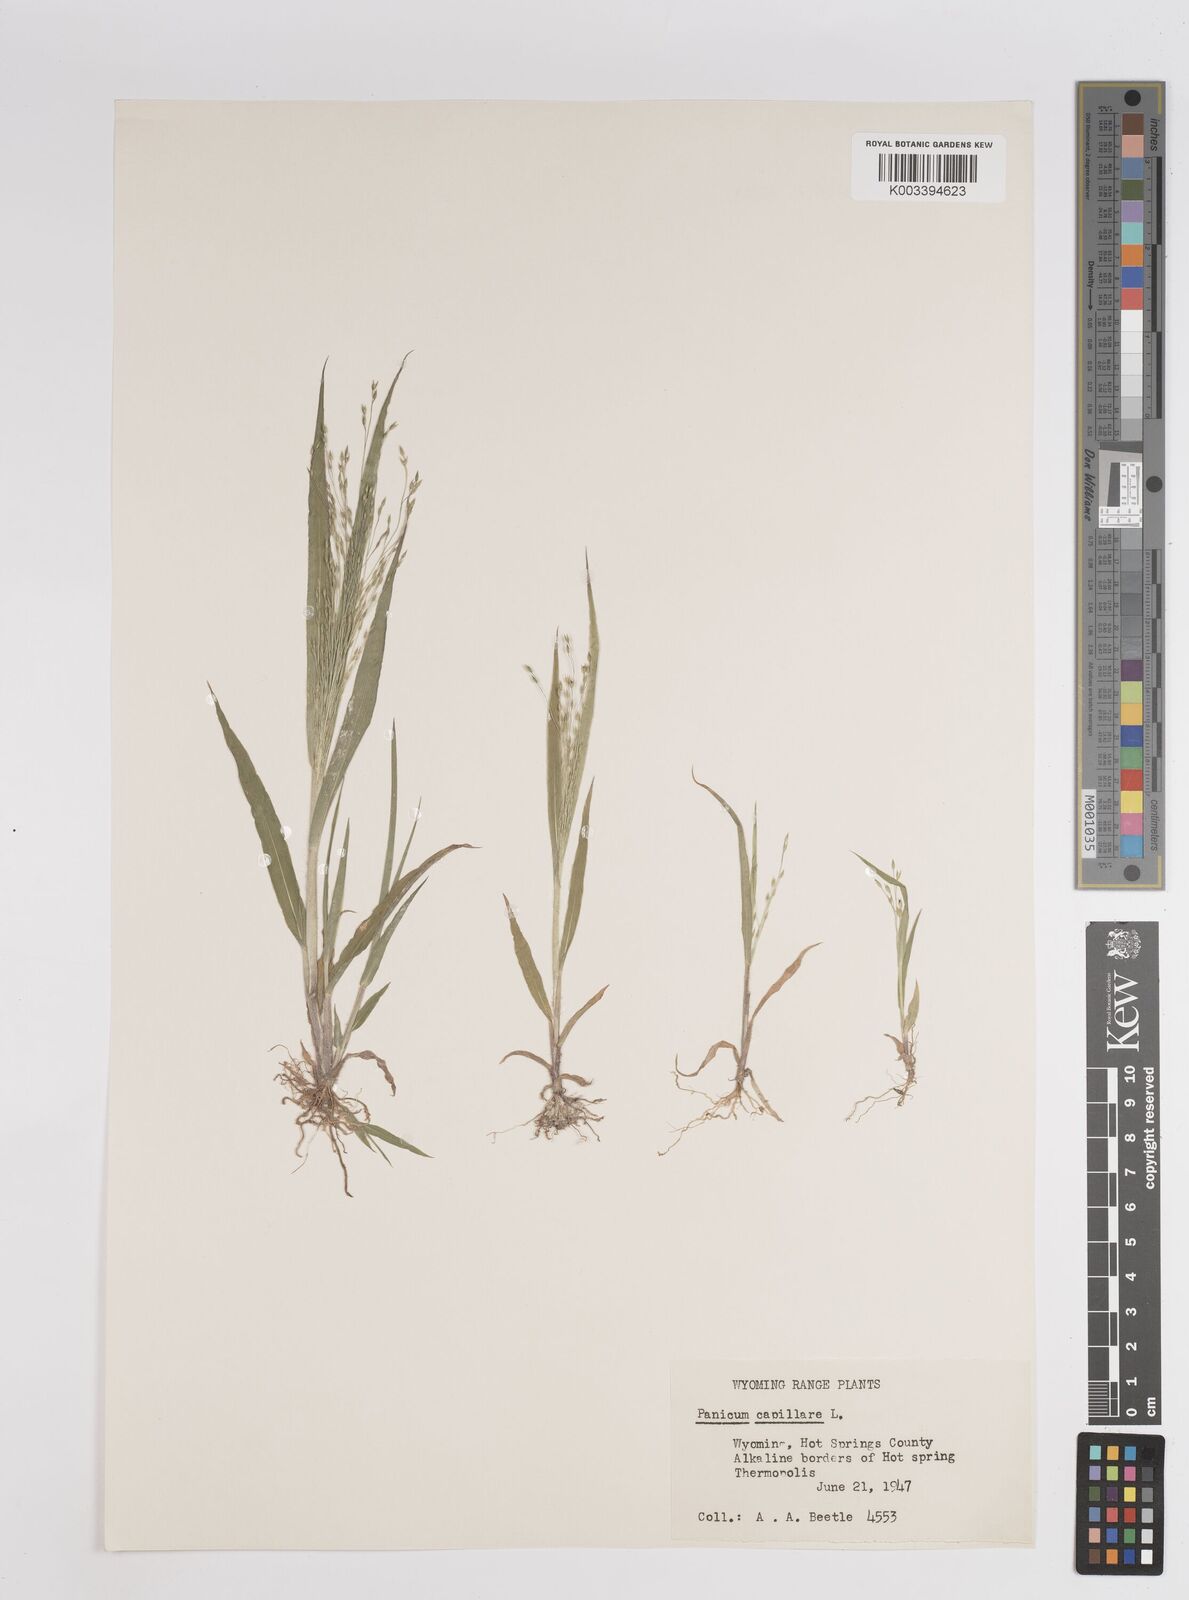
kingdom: Plantae
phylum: Tracheophyta
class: Liliopsida
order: Poales
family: Poaceae
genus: Panicum
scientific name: Panicum capillare
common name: Witch-grass
